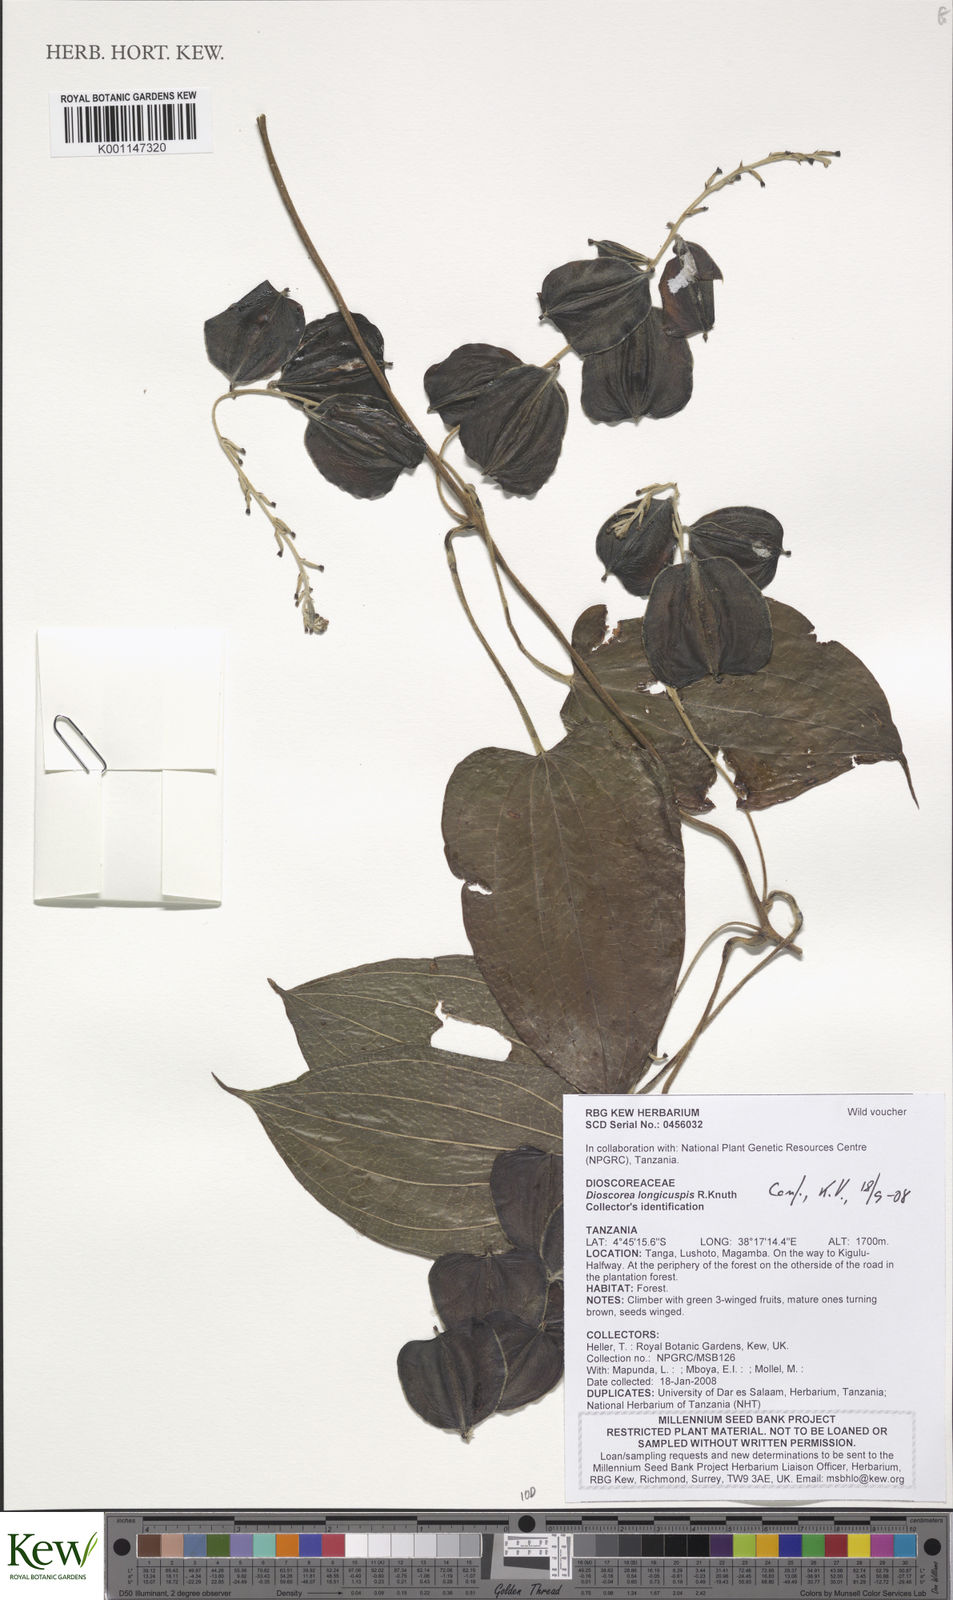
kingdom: Plantae
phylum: Tracheophyta
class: Liliopsida
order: Dioscoreales
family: Dioscoreaceae
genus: Dioscorea
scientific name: Dioscorea longicuspis
